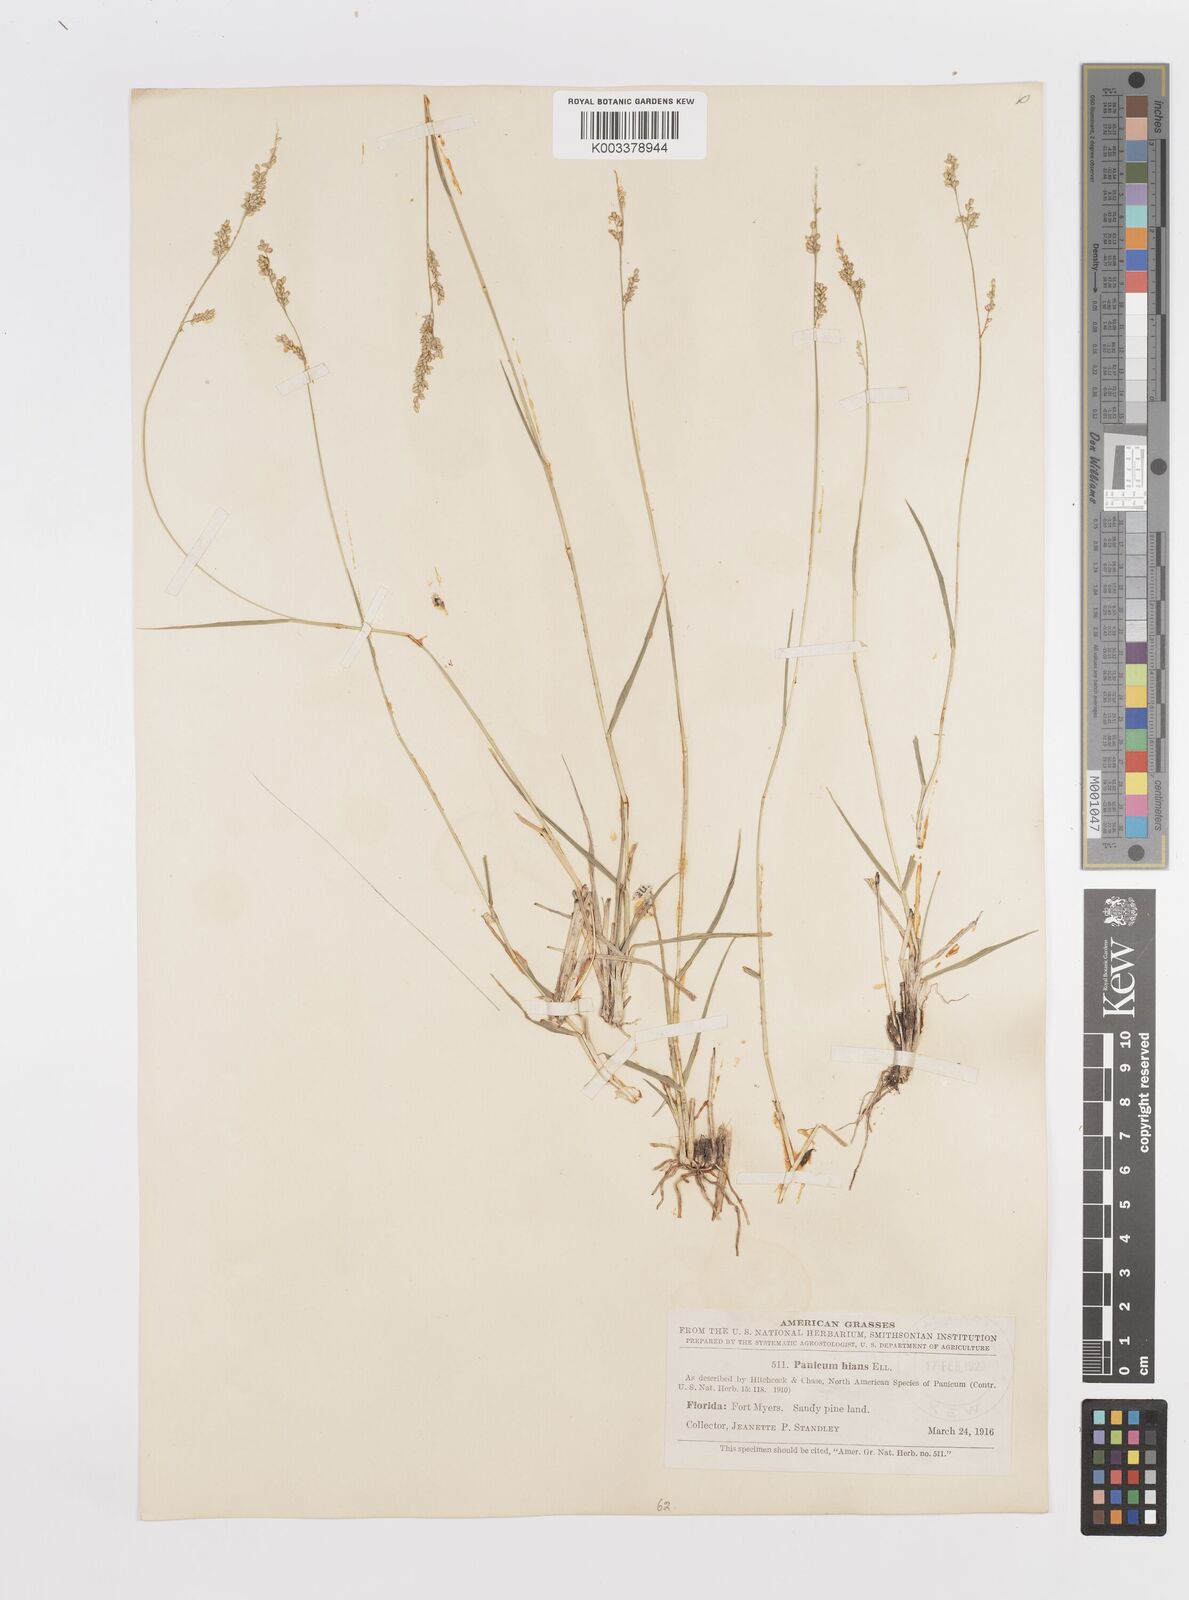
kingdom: Plantae
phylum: Tracheophyta
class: Liliopsida
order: Poales
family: Poaceae
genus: Steinchisma
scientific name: Steinchisma hians
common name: Gaping panic grass
